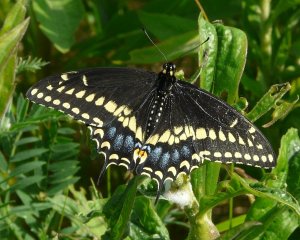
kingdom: Animalia
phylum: Arthropoda
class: Insecta
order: Lepidoptera
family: Papilionidae
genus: Papilio
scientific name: Papilio polyxenes
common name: Black Swallowtail
